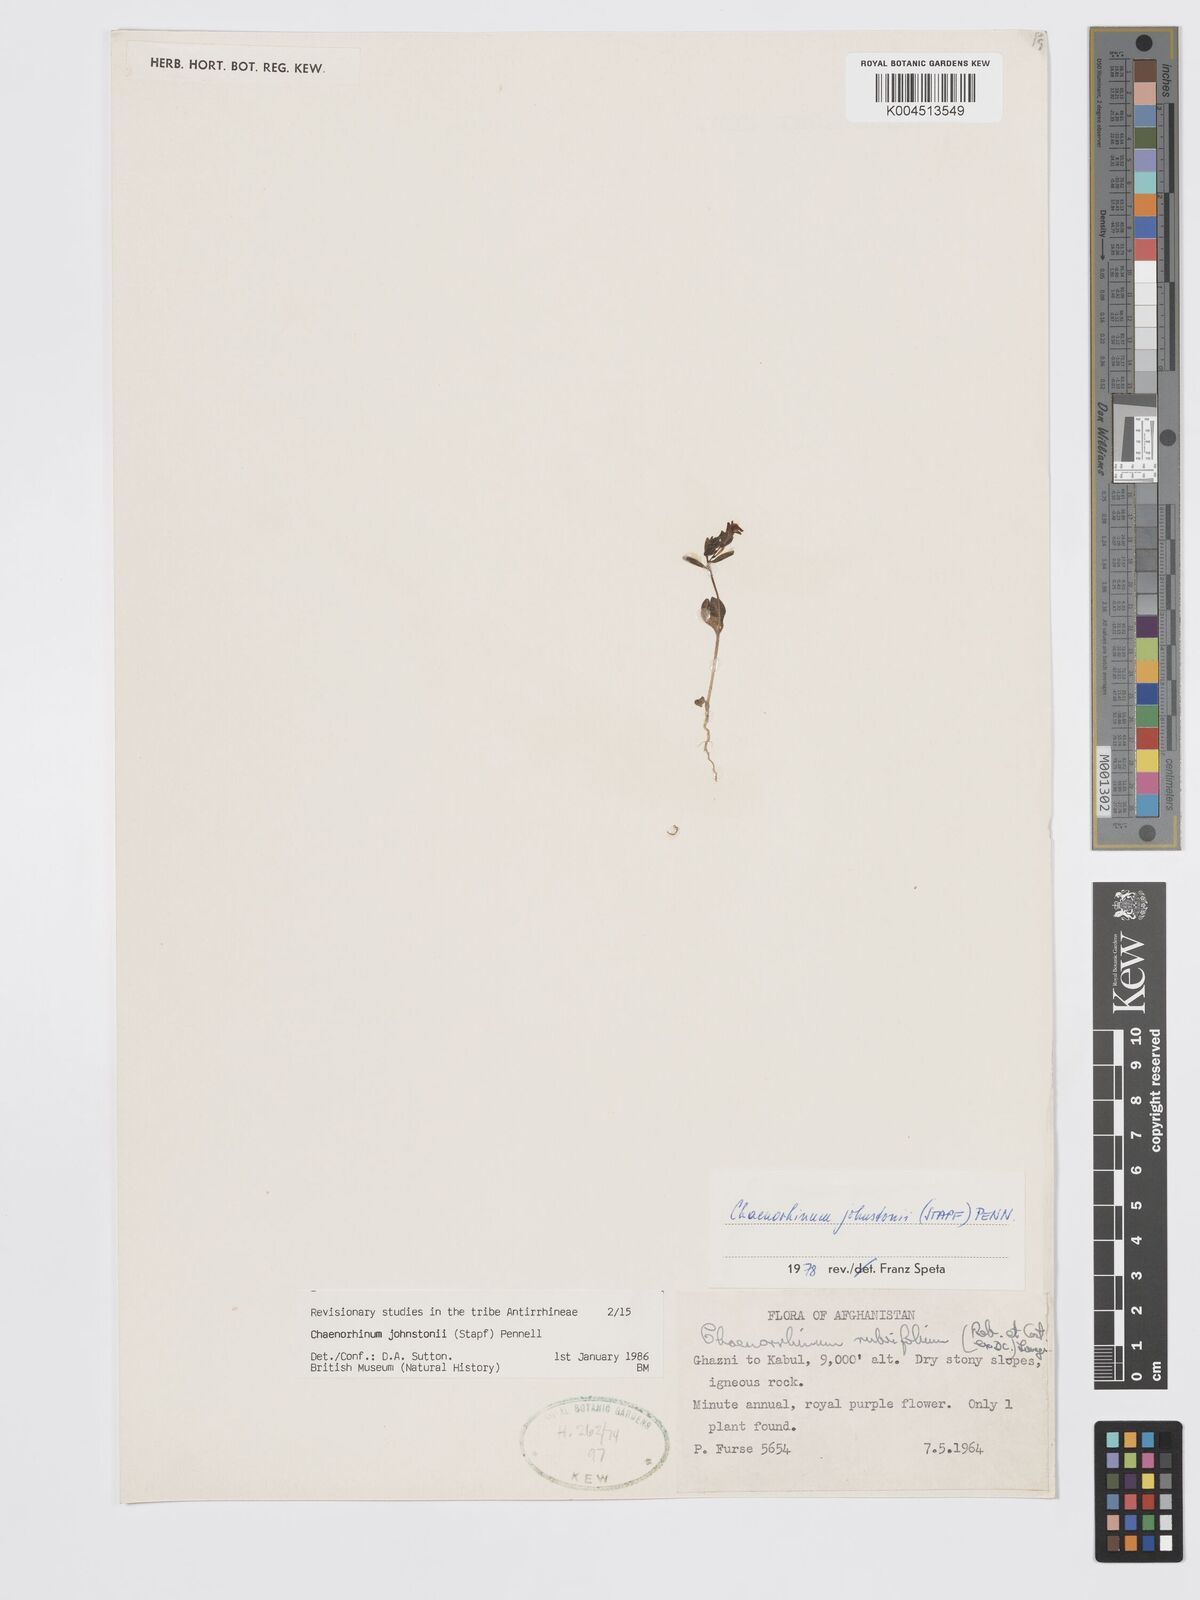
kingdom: Plantae
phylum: Tracheophyta
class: Magnoliopsida
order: Lamiales
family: Plantaginaceae
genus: Chaenorhinum
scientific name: Chaenorhinum johnstonii
